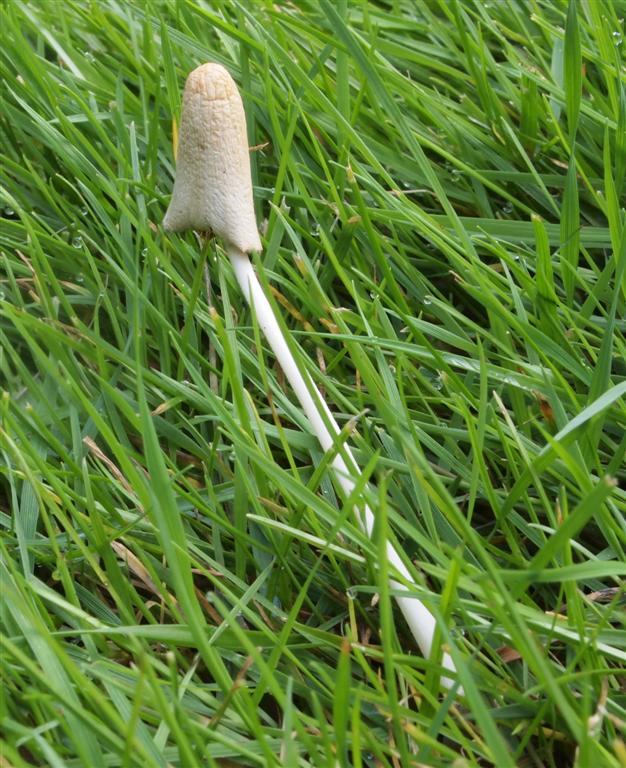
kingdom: Fungi
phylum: Basidiomycota
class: Agaricomycetes
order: Agaricales
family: Bolbitiaceae
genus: Conocybe
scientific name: Conocybe apala
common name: mælkehvid keglehat
